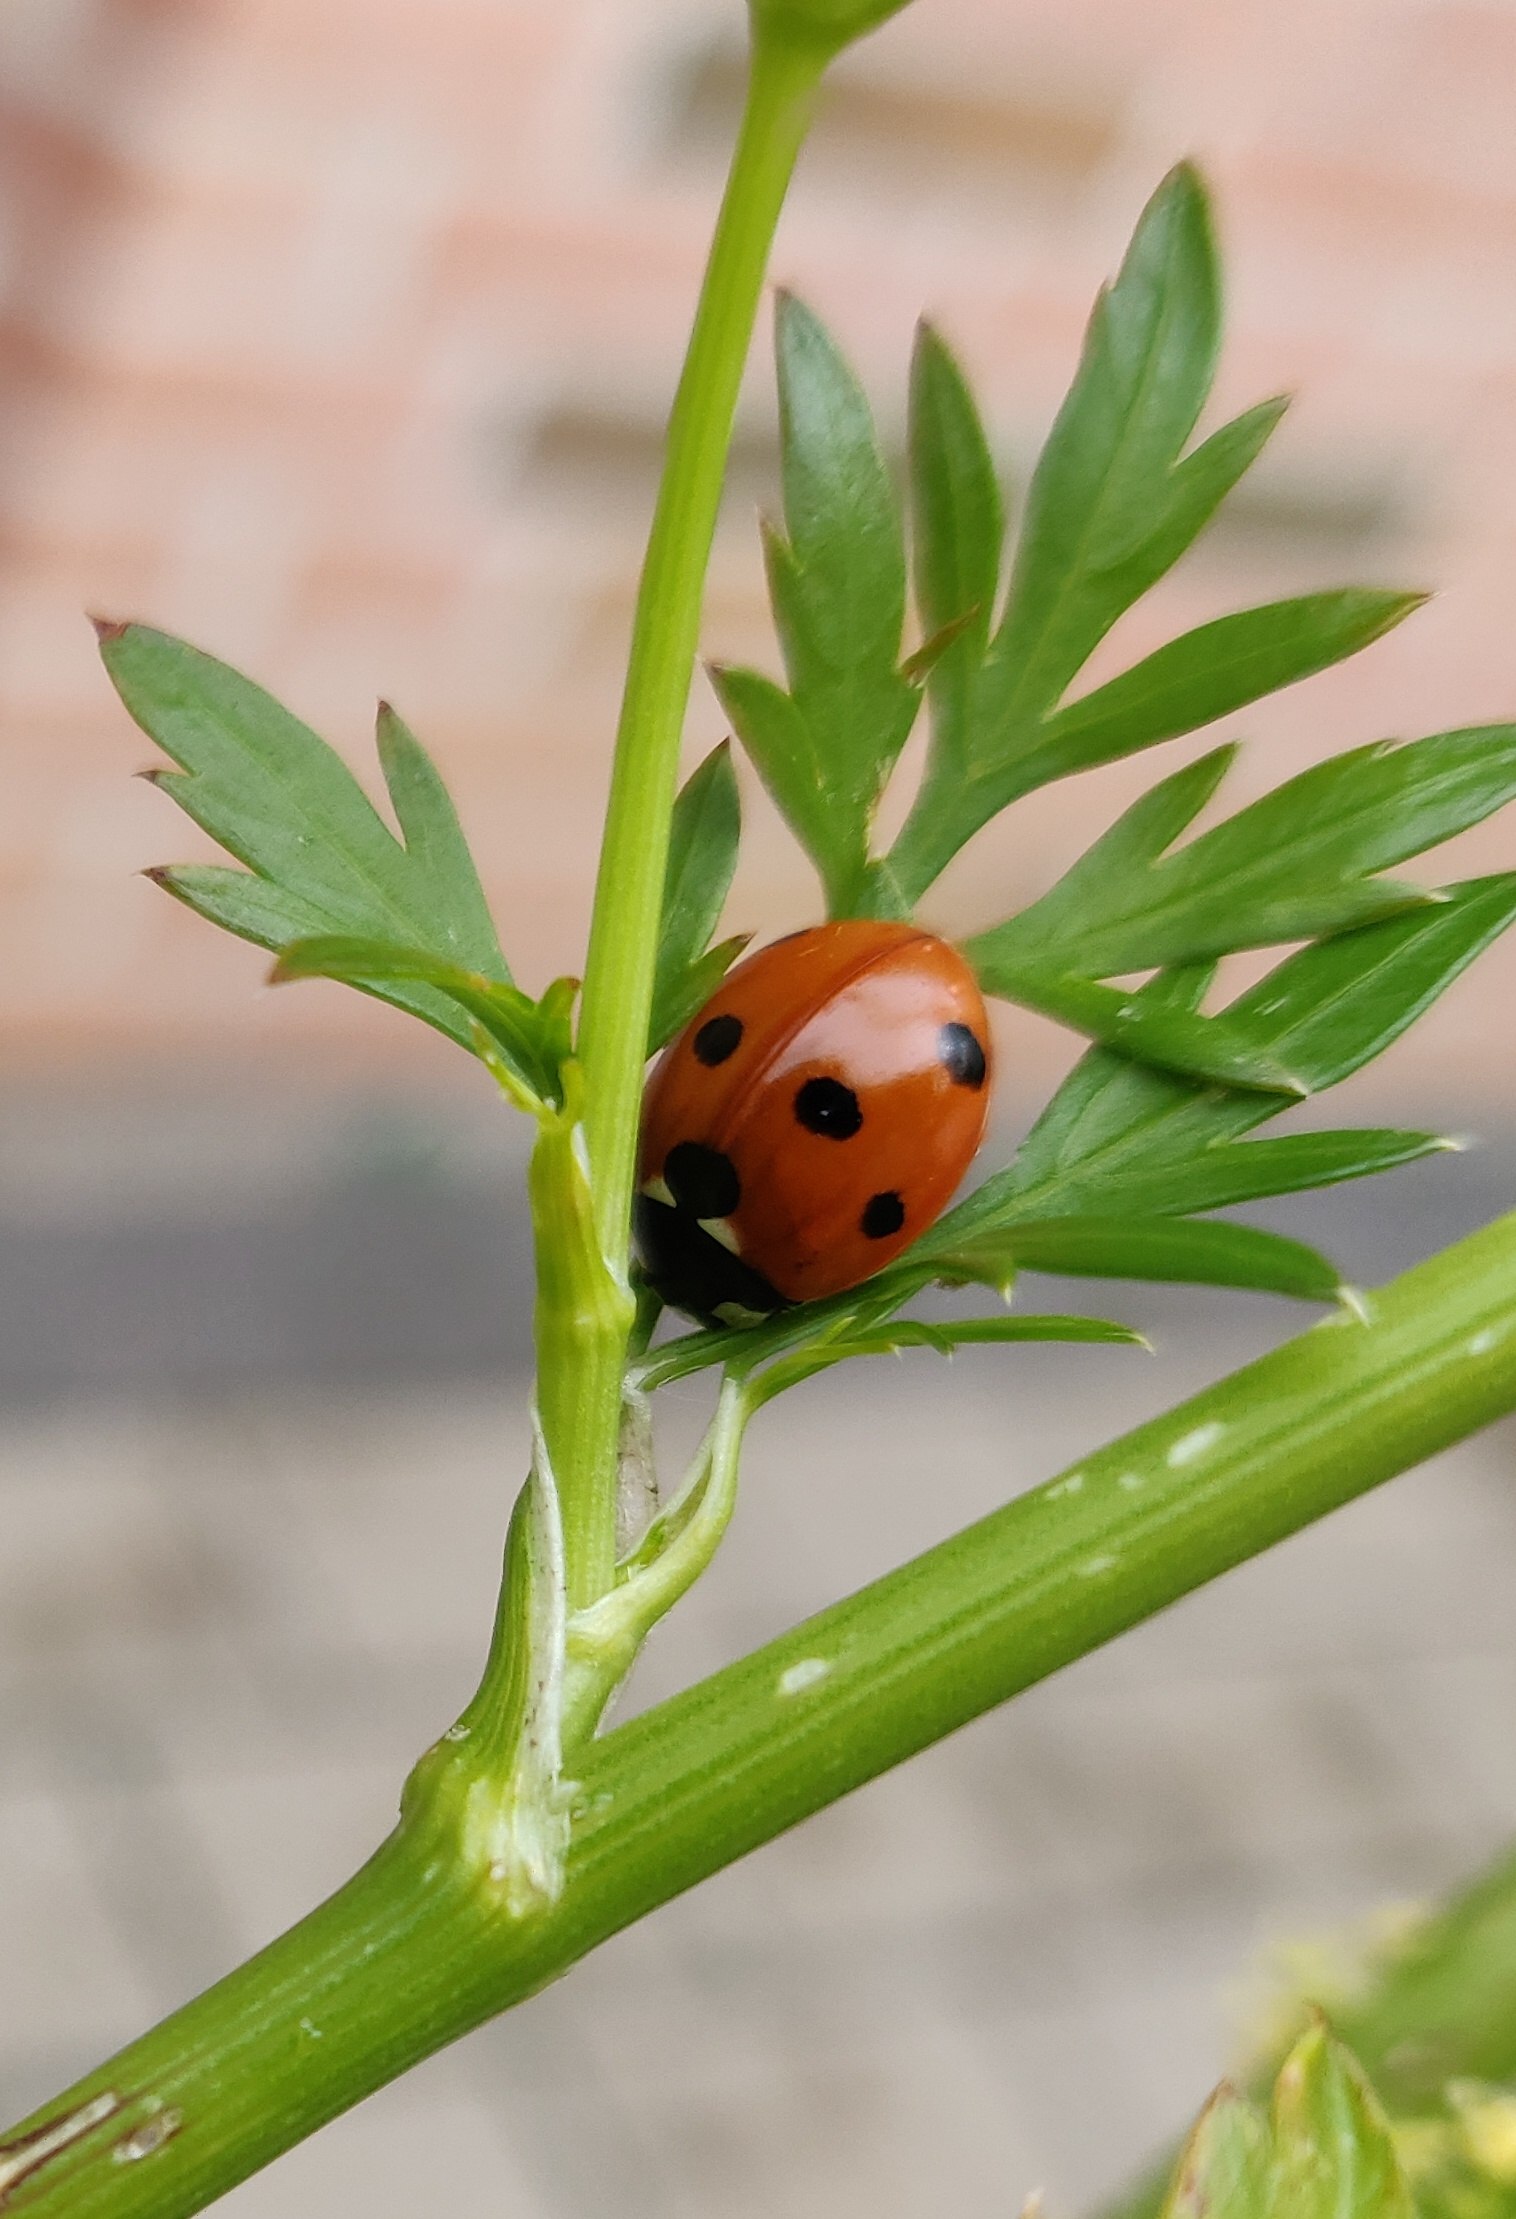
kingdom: Animalia
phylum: Arthropoda
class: Insecta
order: Coleoptera
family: Coccinellidae
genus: Coccinella
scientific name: Coccinella septempunctata
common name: Syvplettet mariehøne
